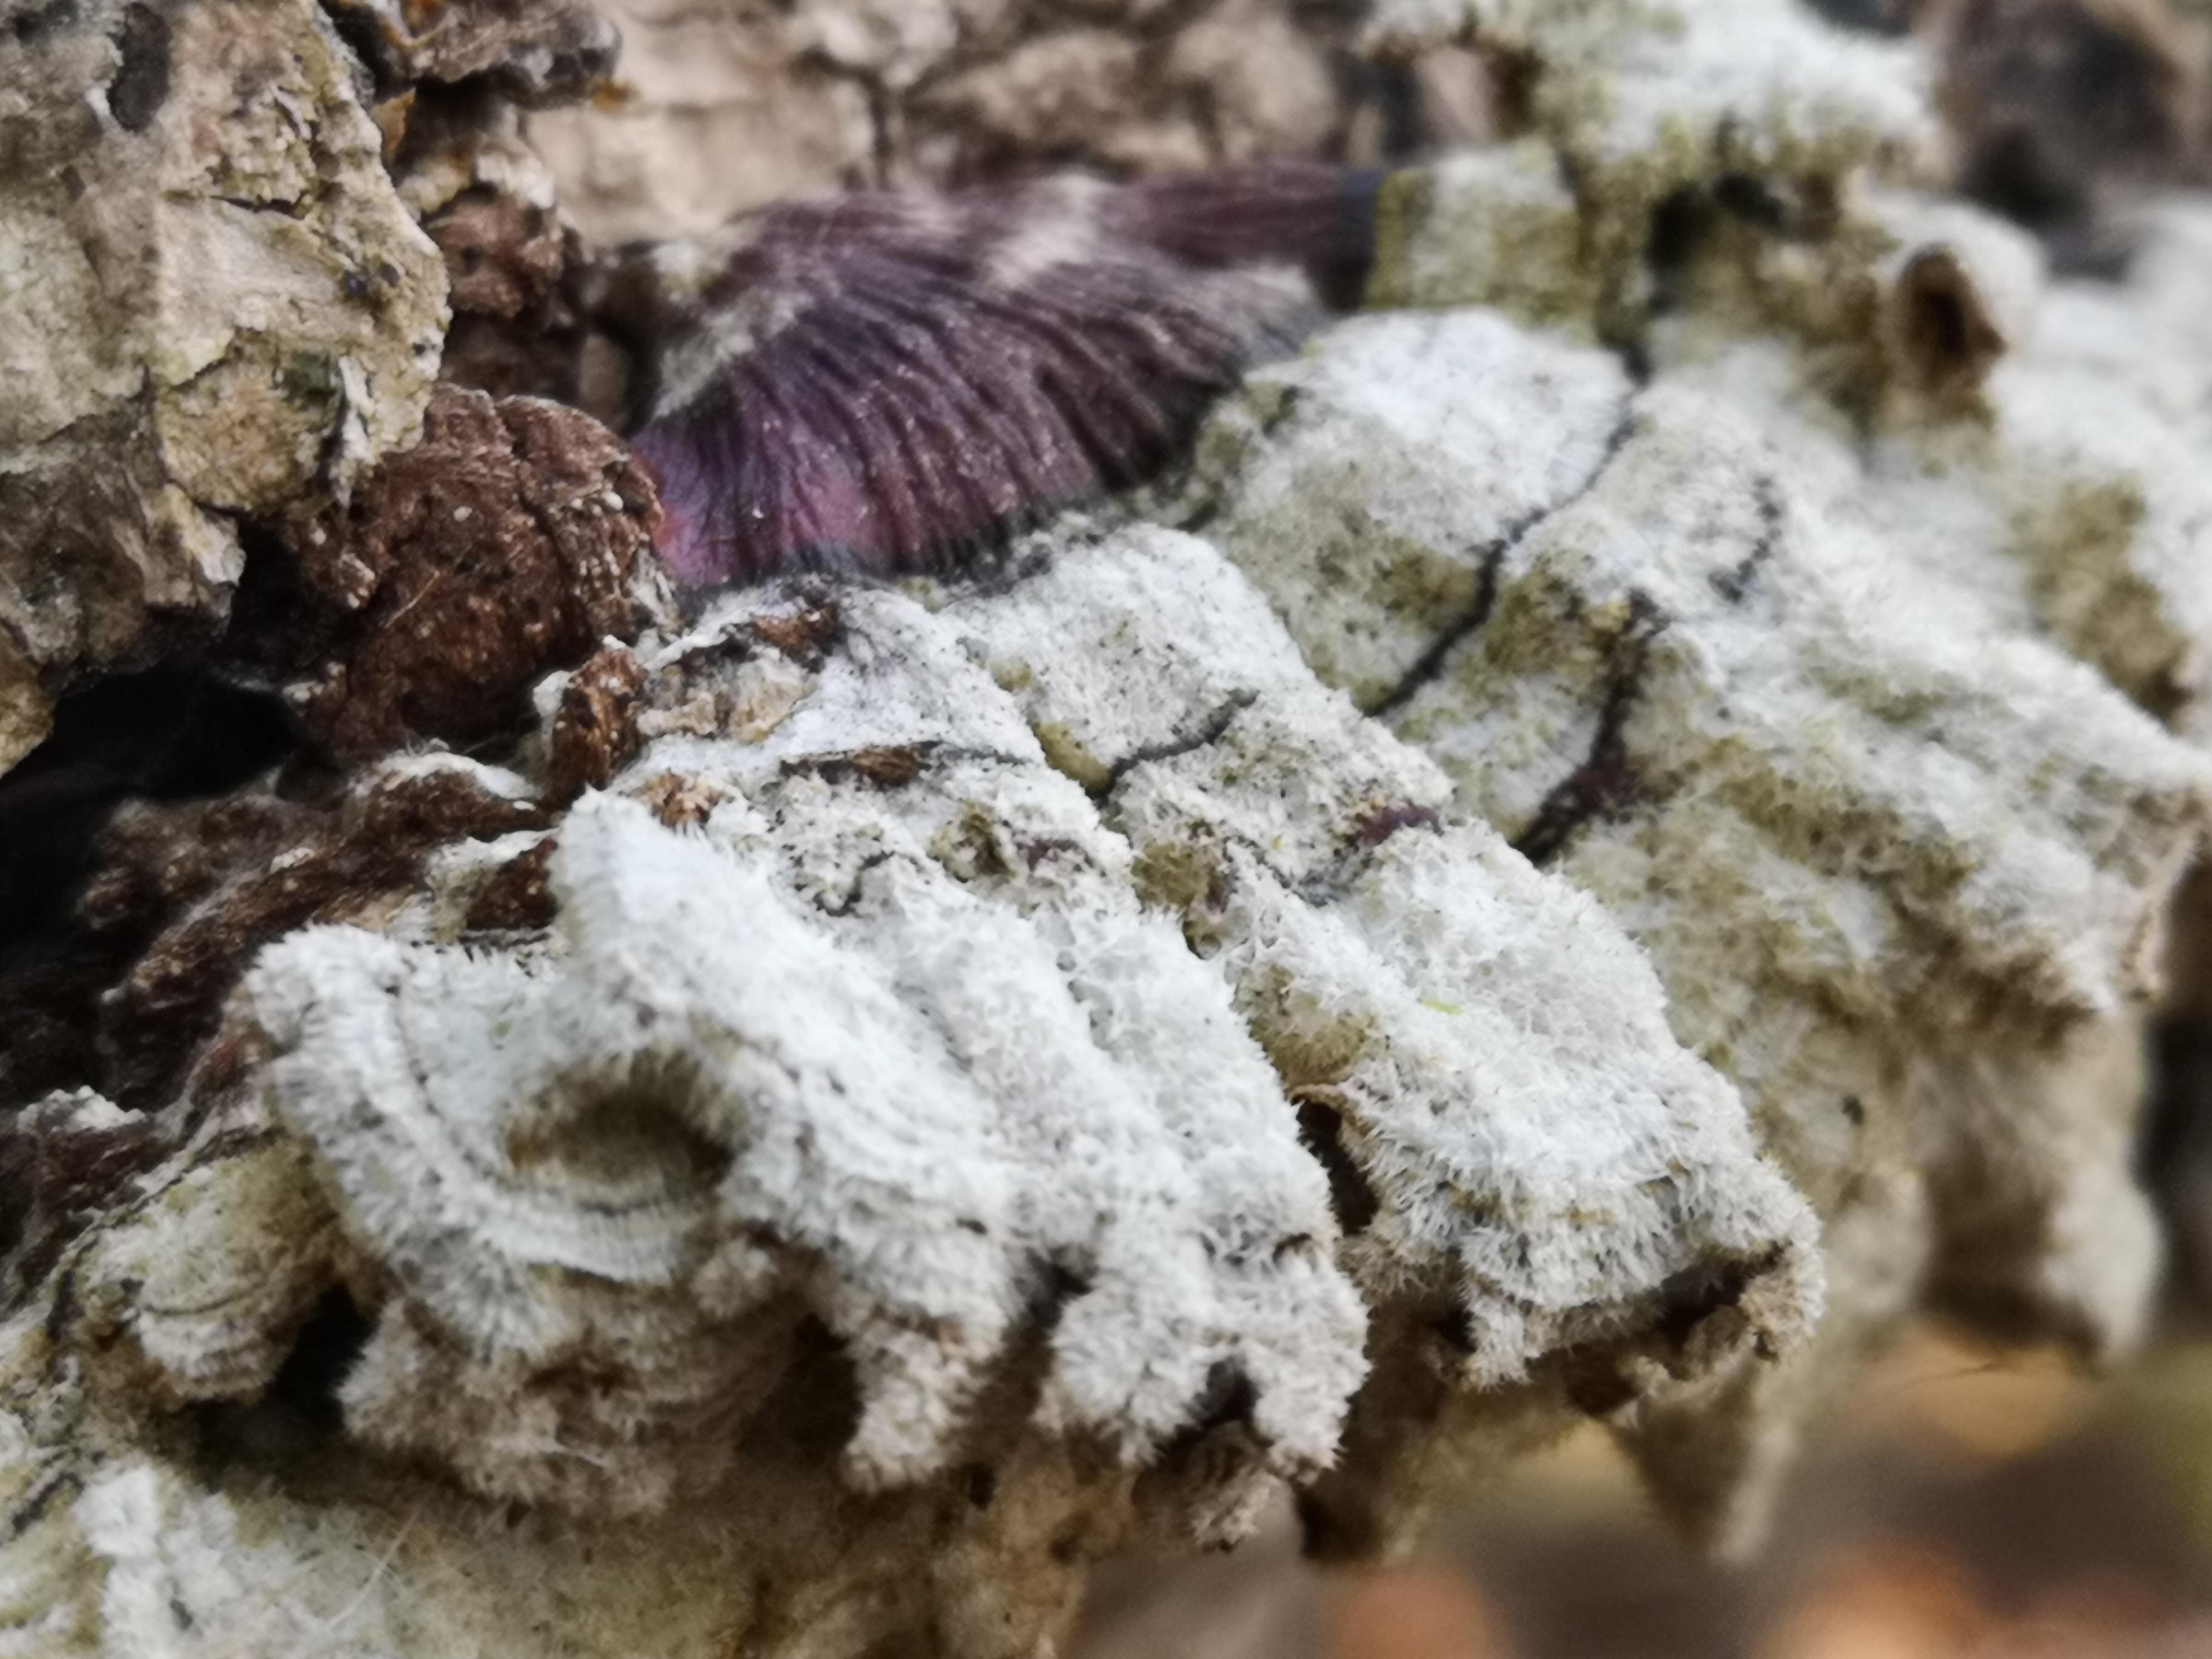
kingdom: Fungi
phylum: Basidiomycota
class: Agaricomycetes
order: Russulales
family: Stereaceae
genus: Stereum
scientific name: Stereum hirsutum
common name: håret lædersvamp
